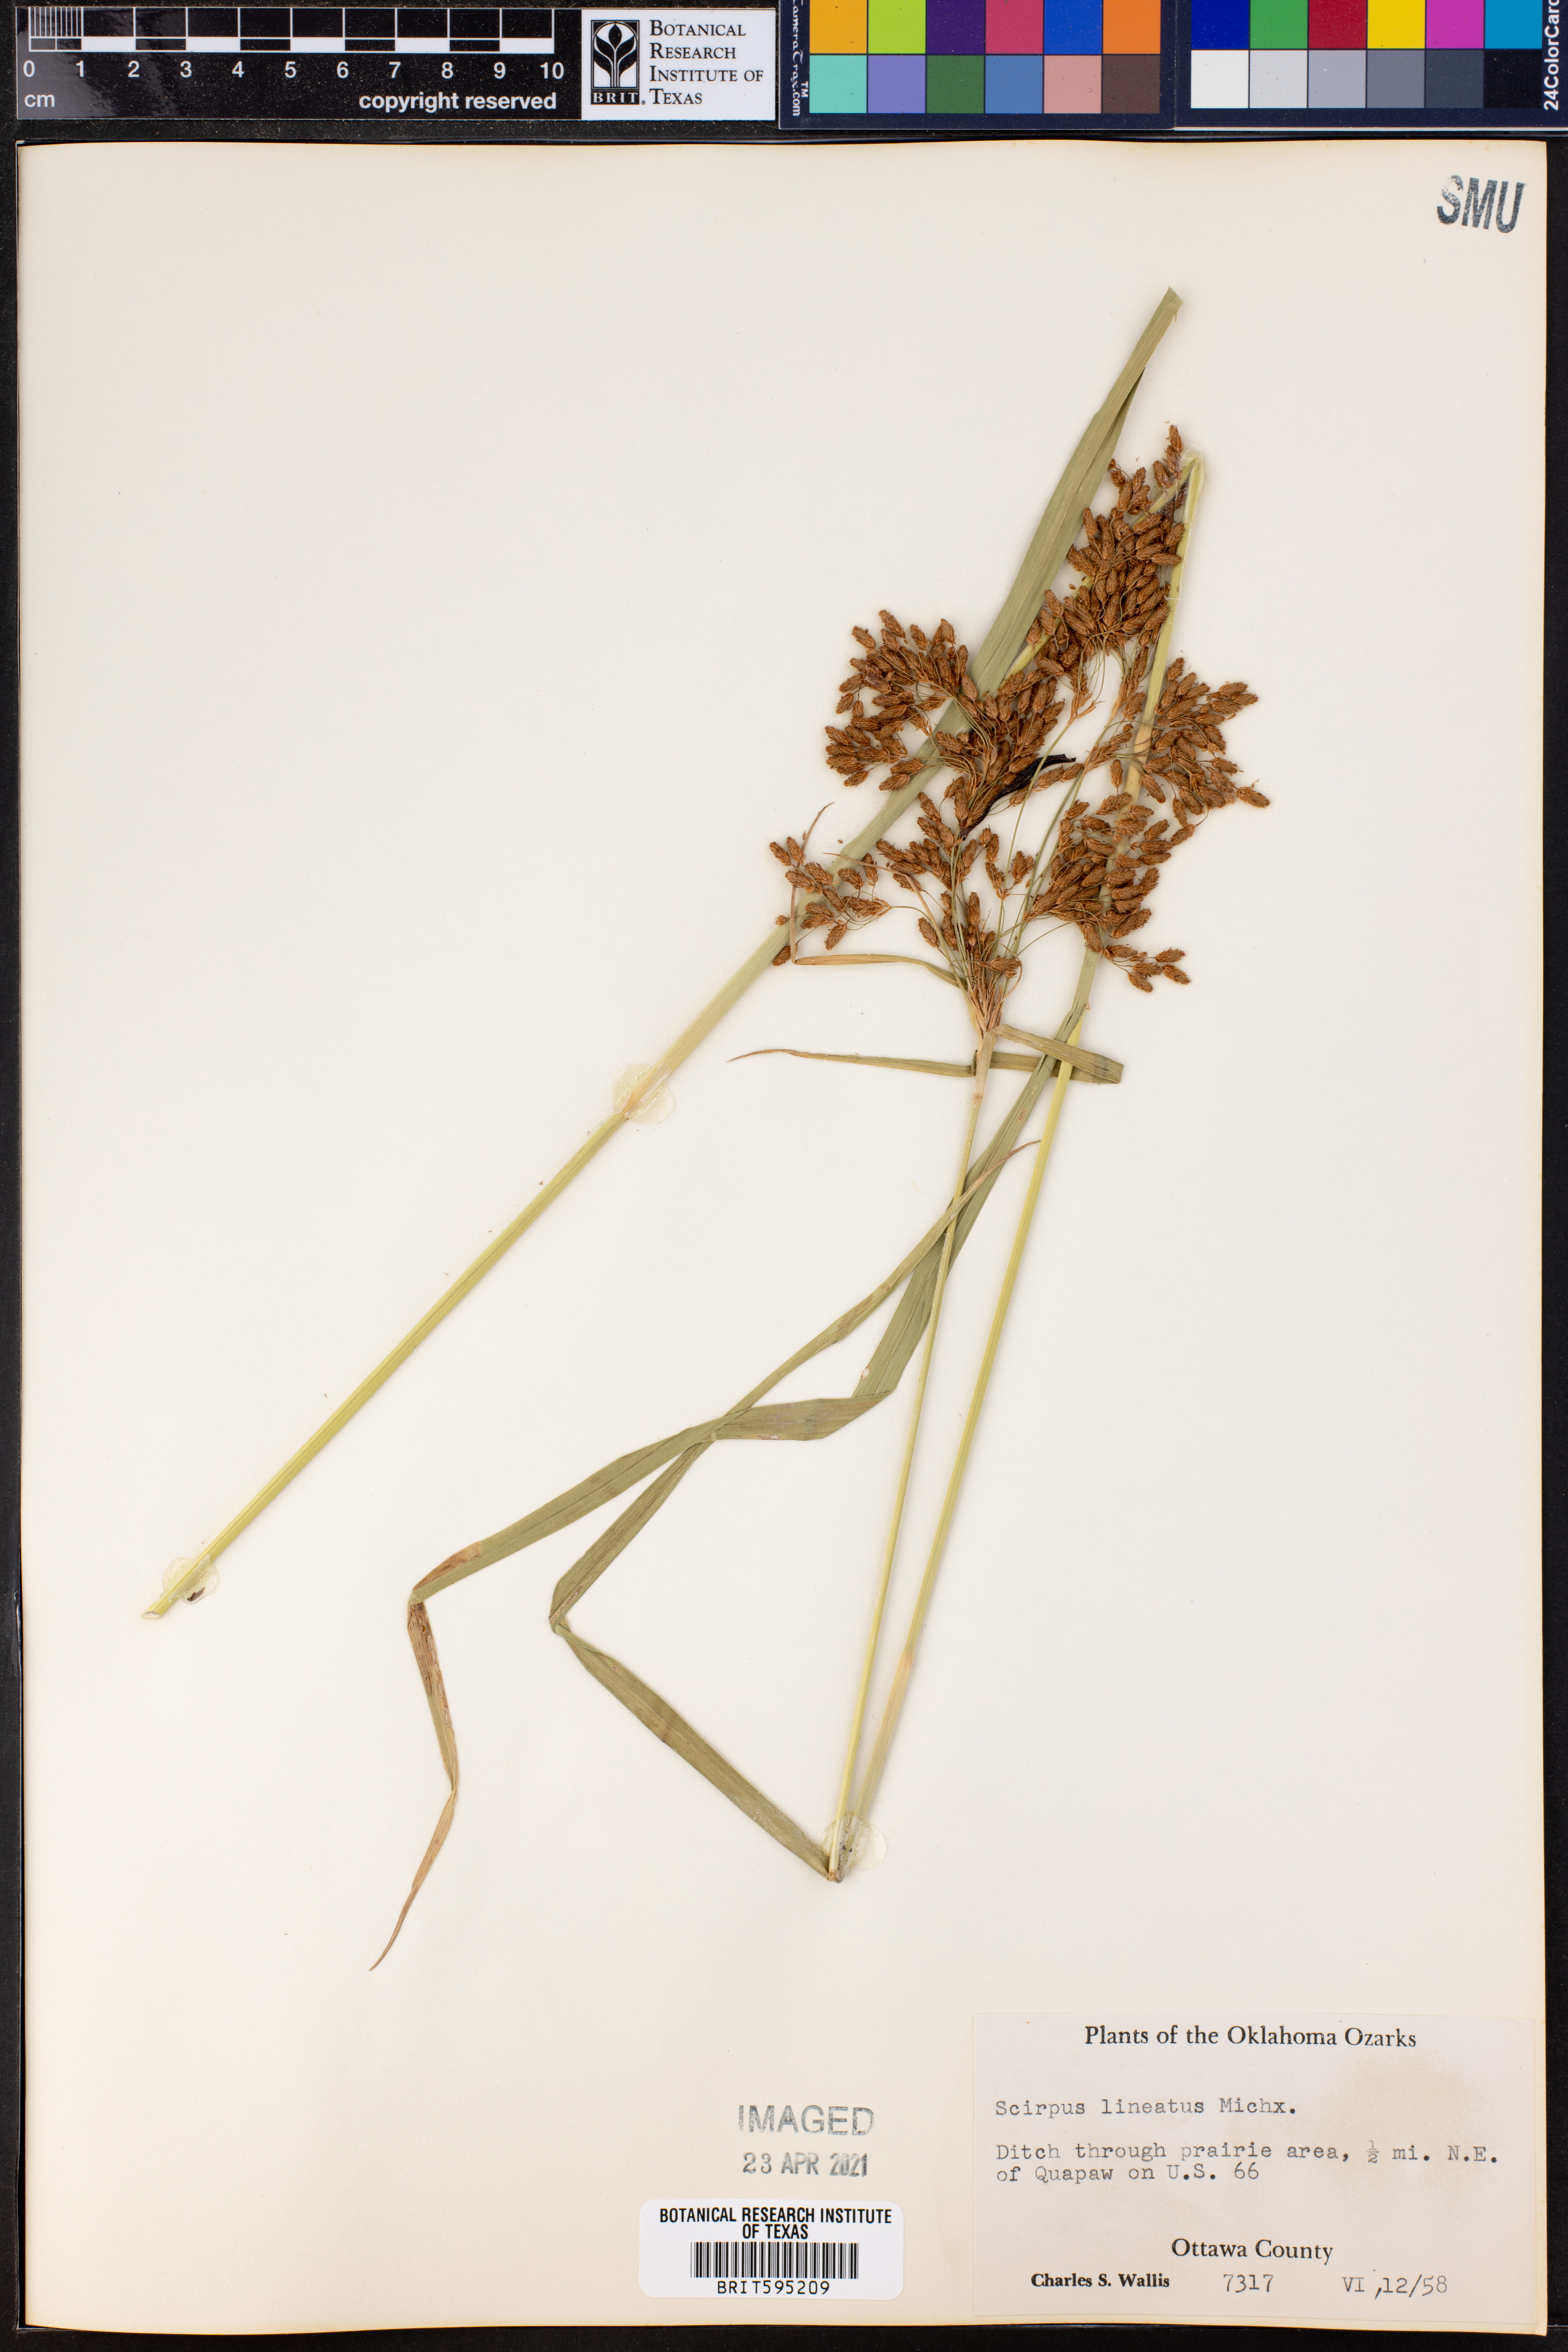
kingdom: Plantae
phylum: Tracheophyta
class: Liliopsida
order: Poales
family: Cyperaceae
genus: Scirpus
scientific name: Scirpus lineatus
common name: Drooping bulrush
